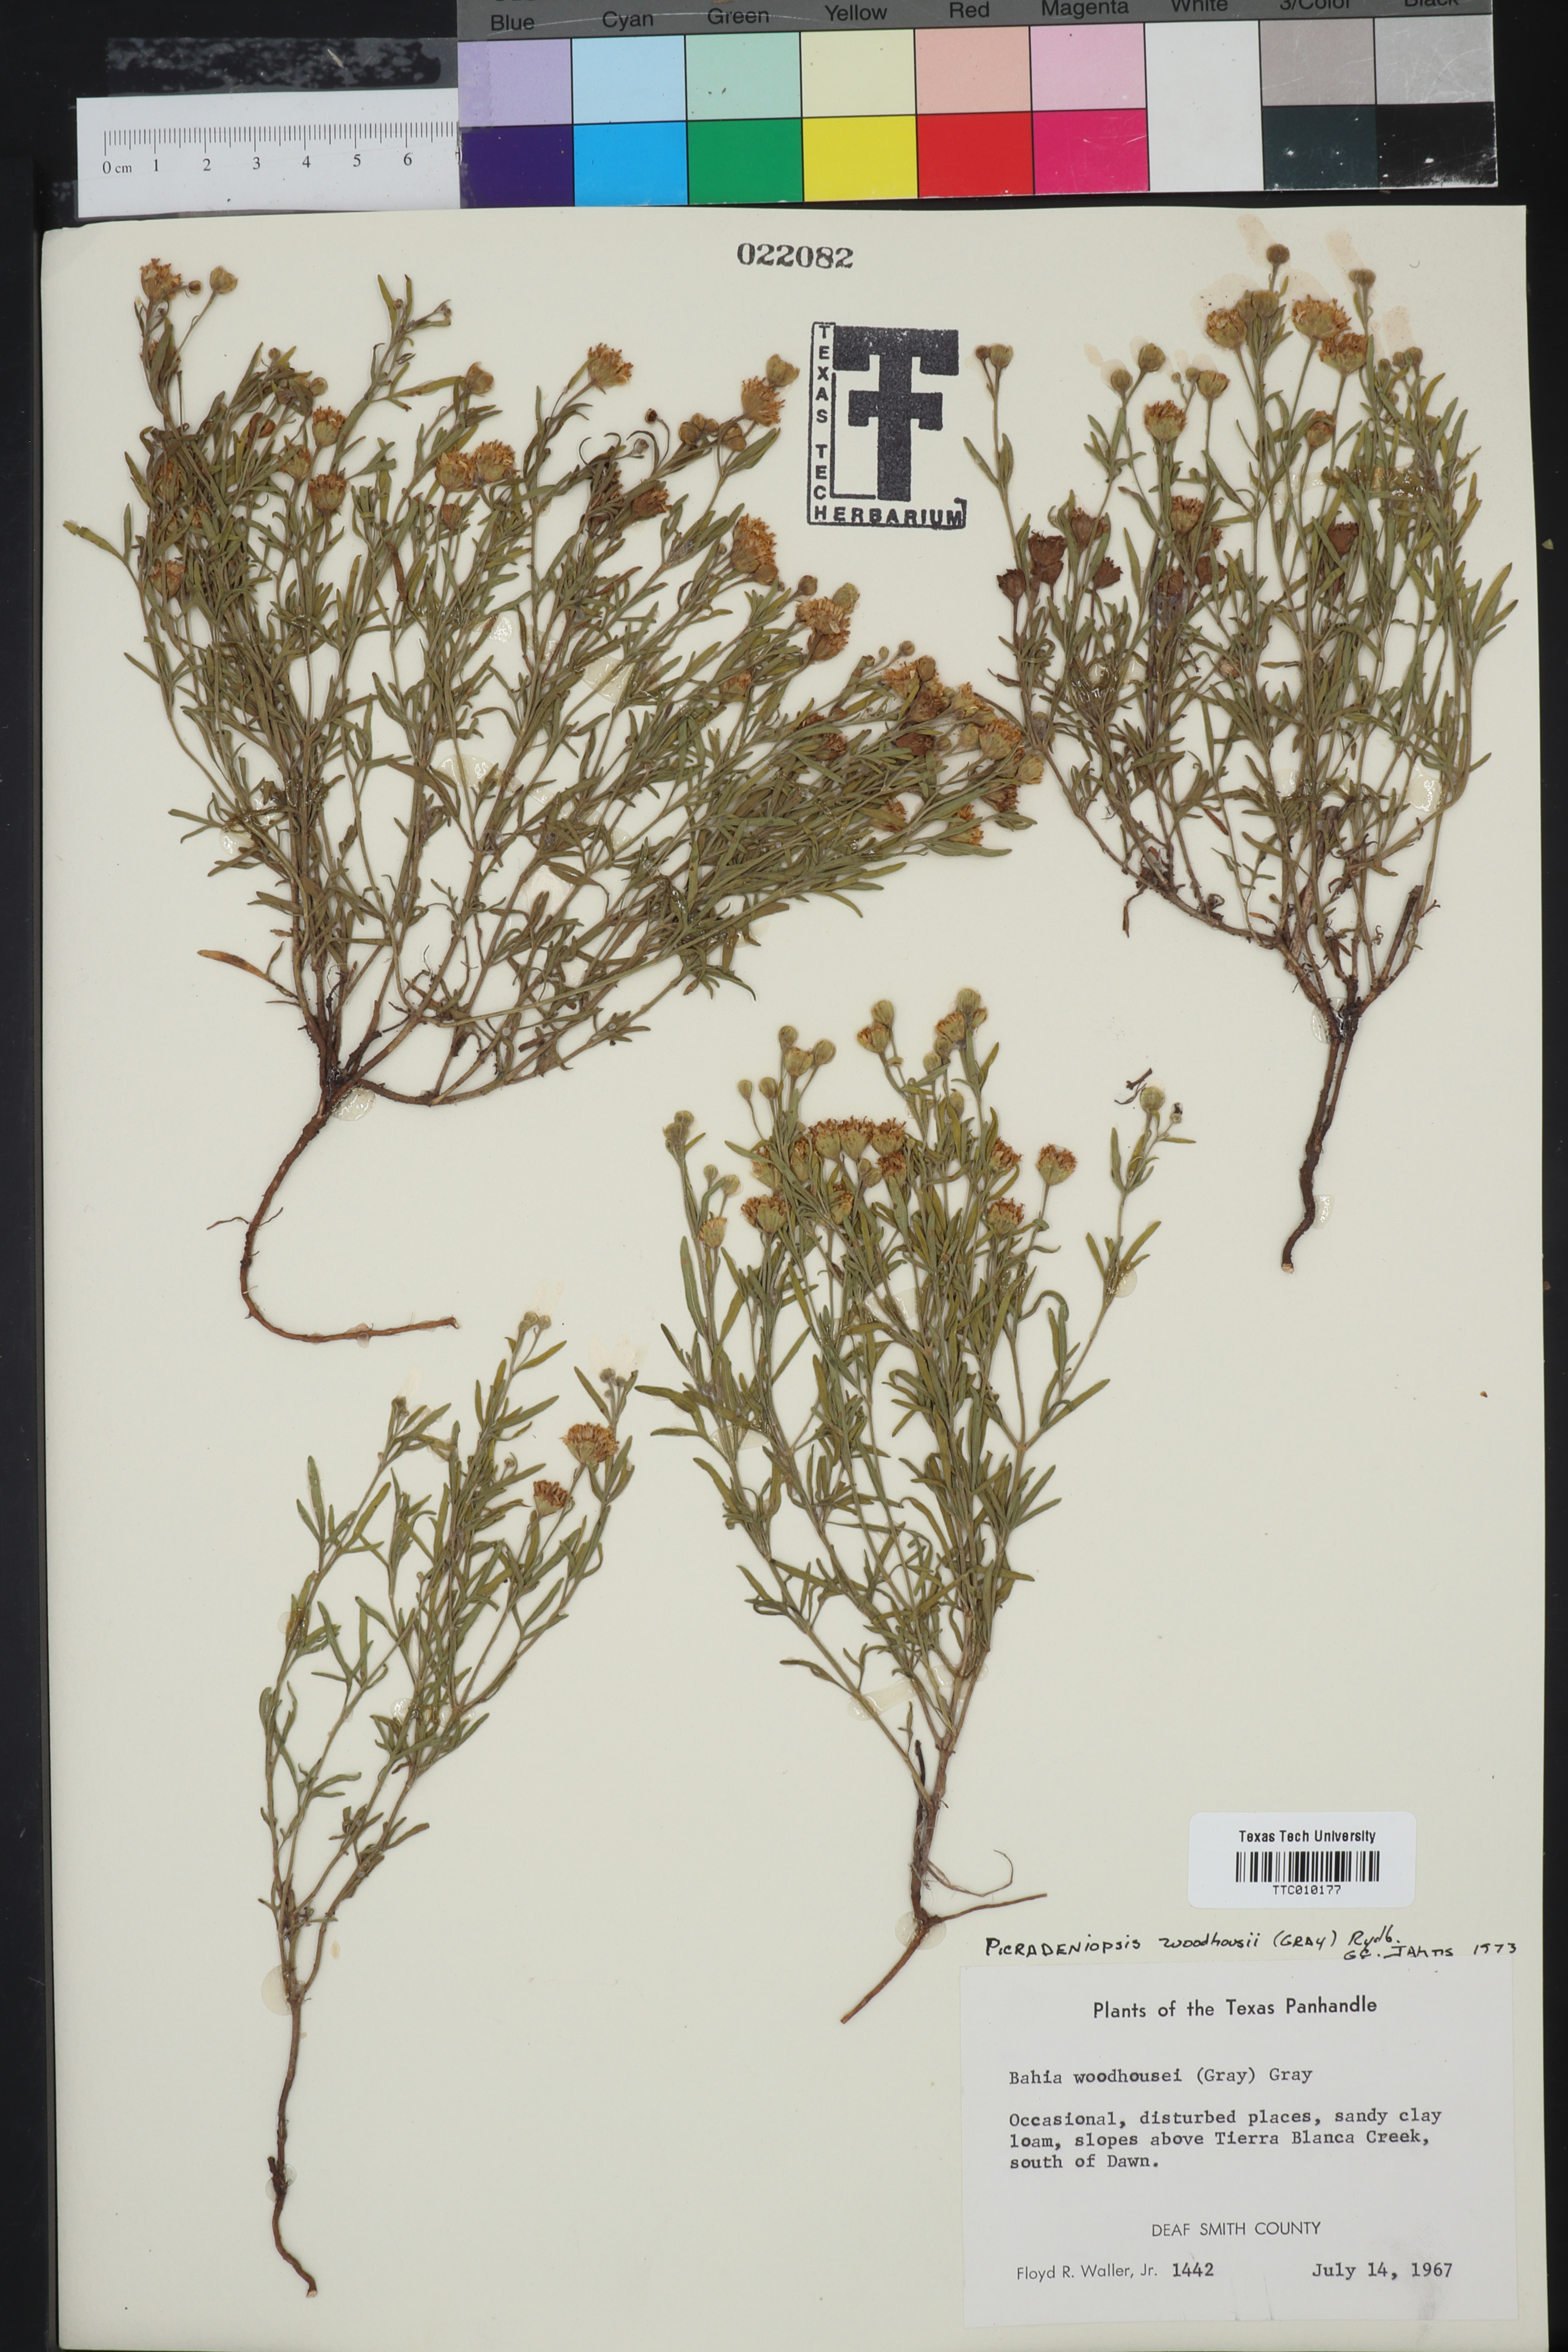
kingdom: Plantae
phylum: Tracheophyta
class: Magnoliopsida
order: Asterales
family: Asteraceae
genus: Picradeniopsis
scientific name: Picradeniopsis woodhousei
